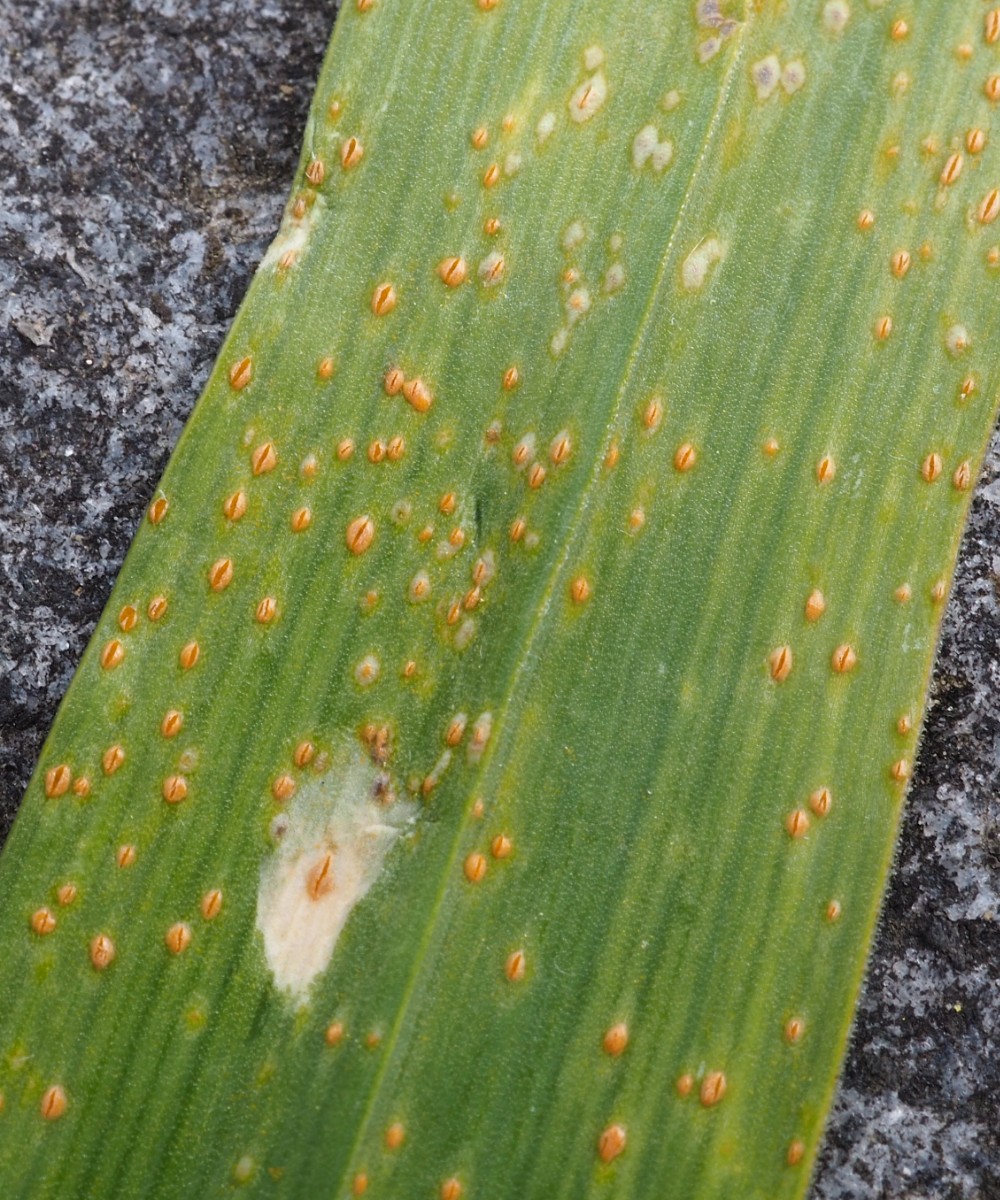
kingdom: Fungi
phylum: Basidiomycota
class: Pucciniomycetes
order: Pucciniales
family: Pucciniaceae
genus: Puccinia
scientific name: Puccinia porri
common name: Allium rust
